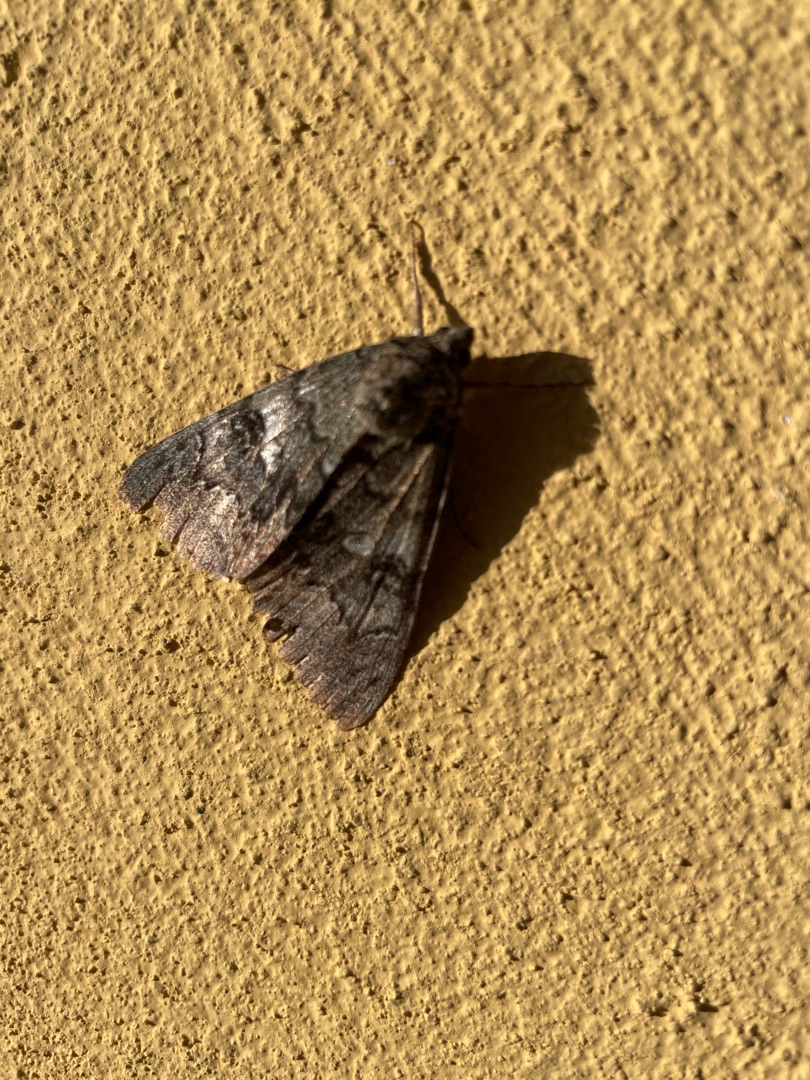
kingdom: Animalia
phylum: Arthropoda
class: Insecta
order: Lepidoptera
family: Erebidae
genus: Catocala
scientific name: Catocala nupta
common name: Rødt ordensbånd
